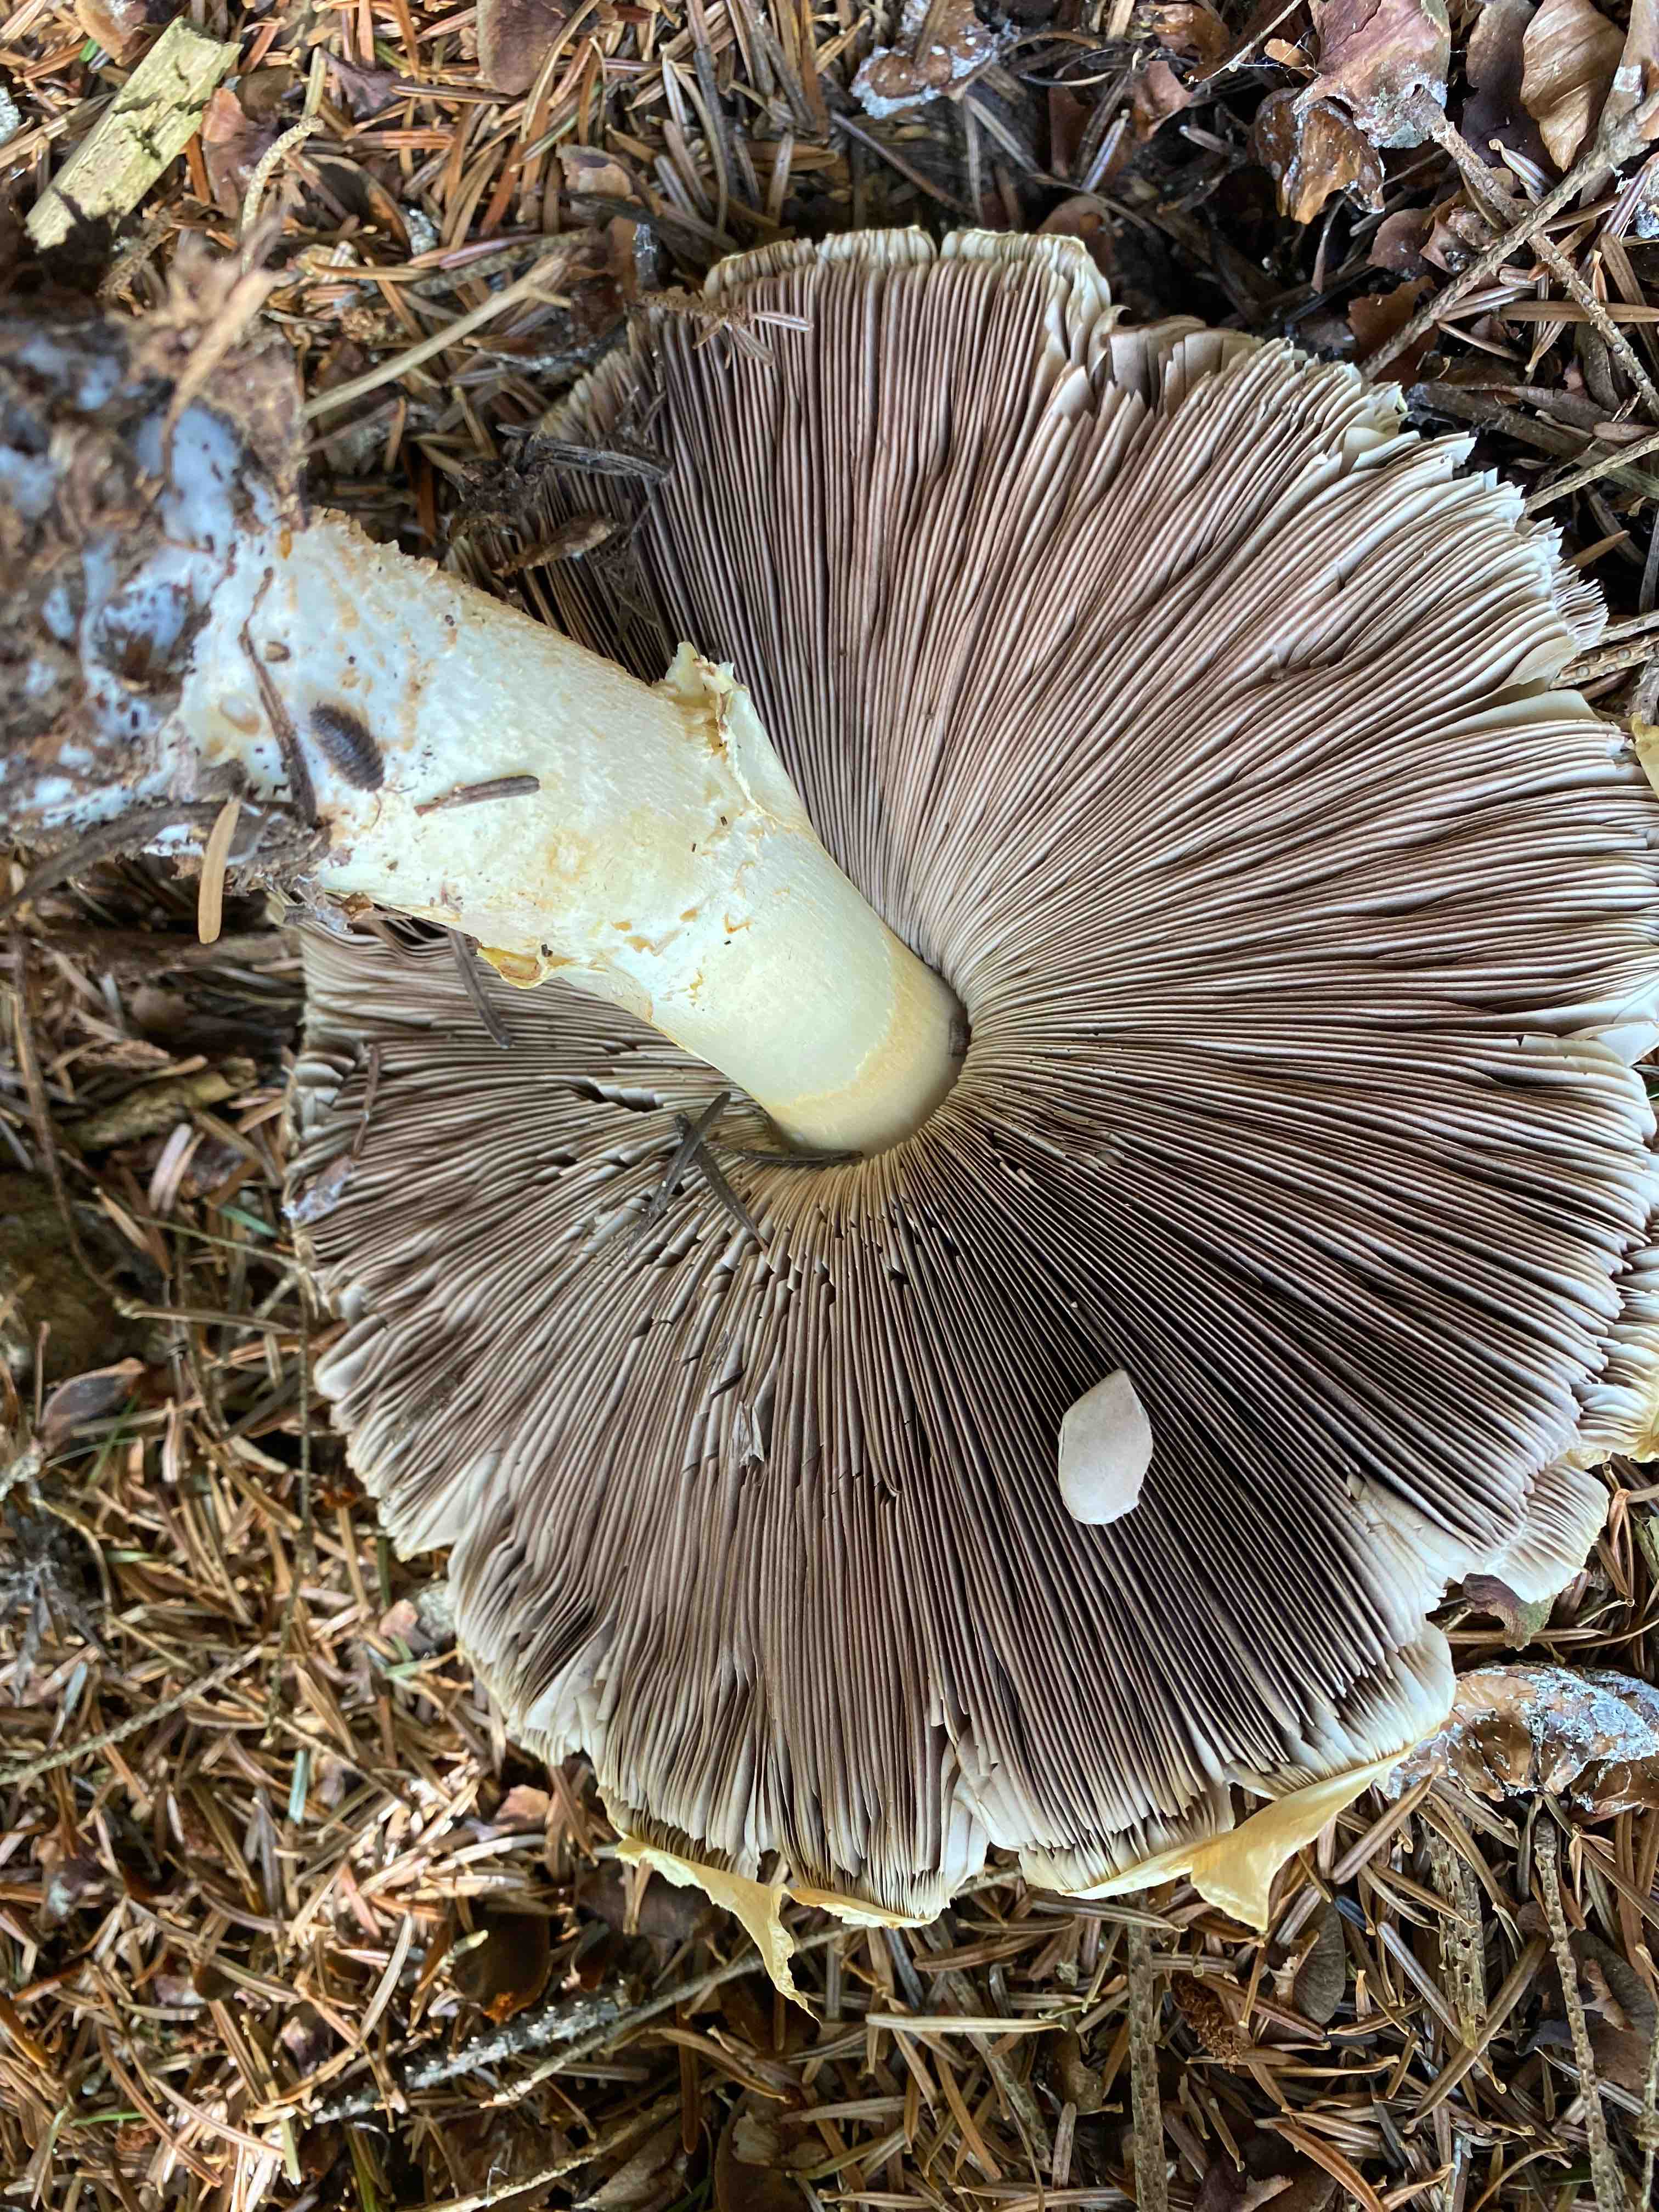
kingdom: Fungi
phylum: Basidiomycota
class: Agaricomycetes
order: Agaricales
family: Agaricaceae
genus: Agaricus
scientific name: Agaricus augustus
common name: prægtig champignon
